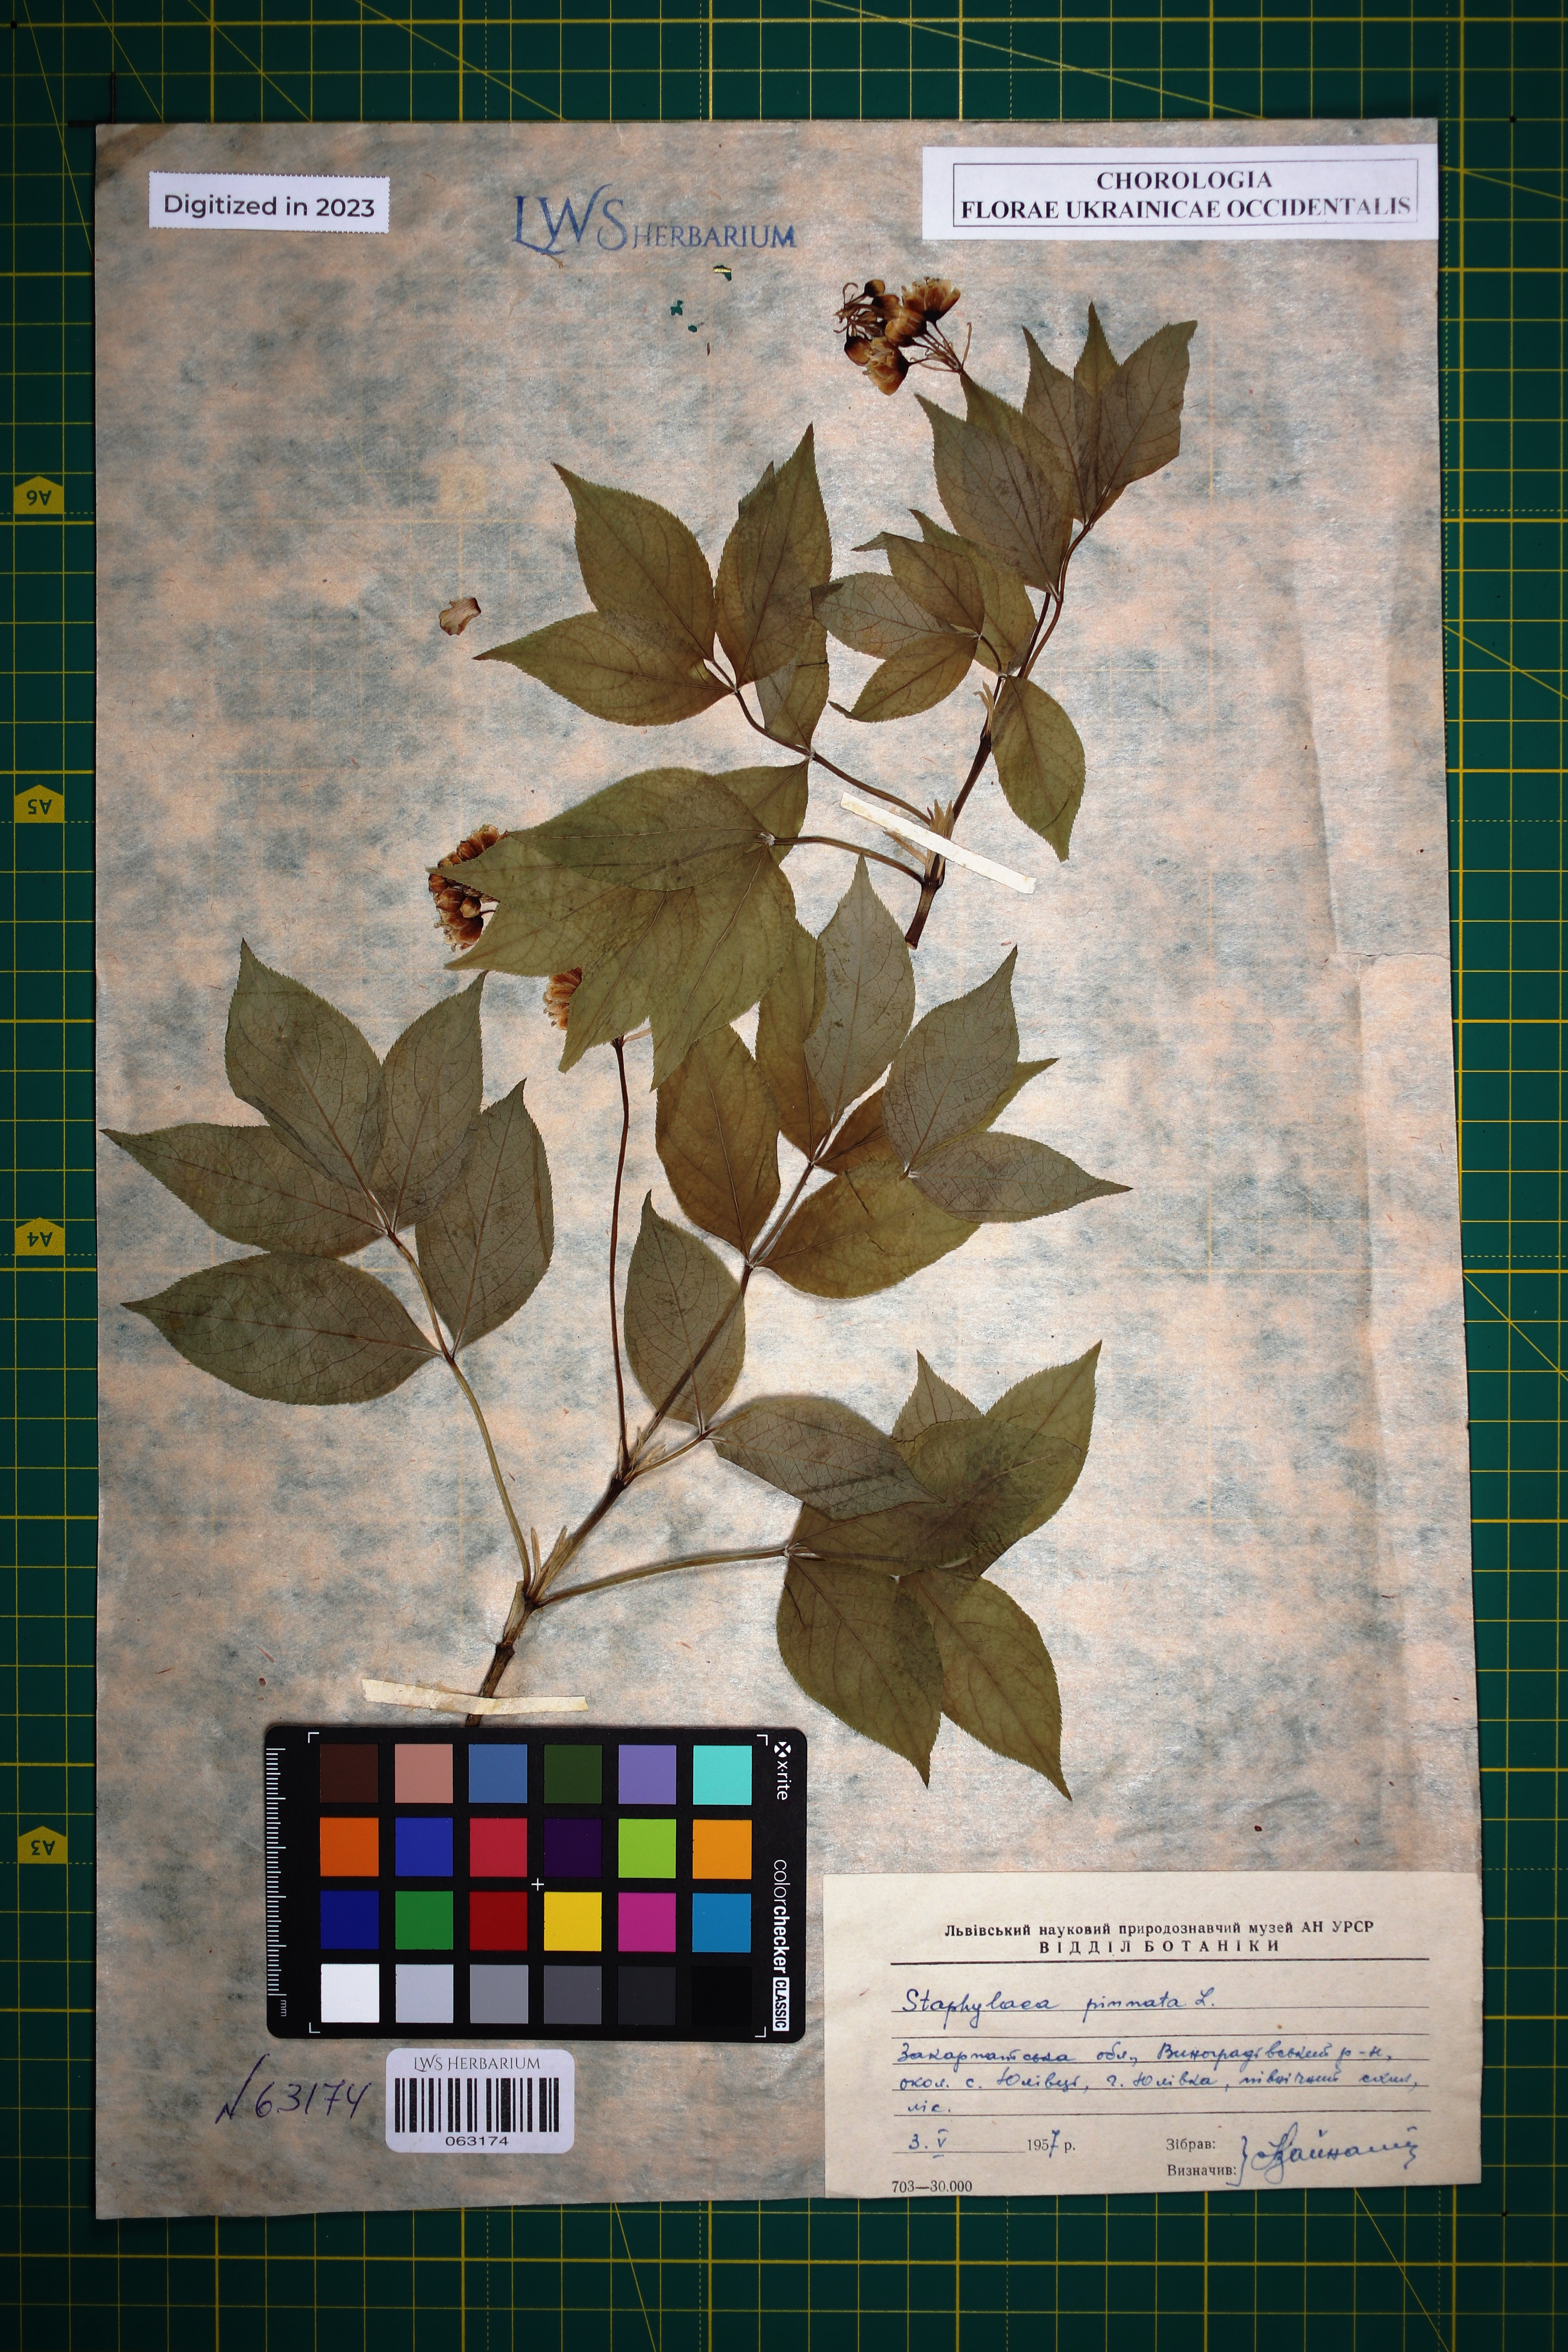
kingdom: Plantae
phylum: Tracheophyta
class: Magnoliopsida
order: Crossosomatales
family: Staphyleaceae
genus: Staphylea
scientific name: Staphylea pinnata
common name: Bladdernut
